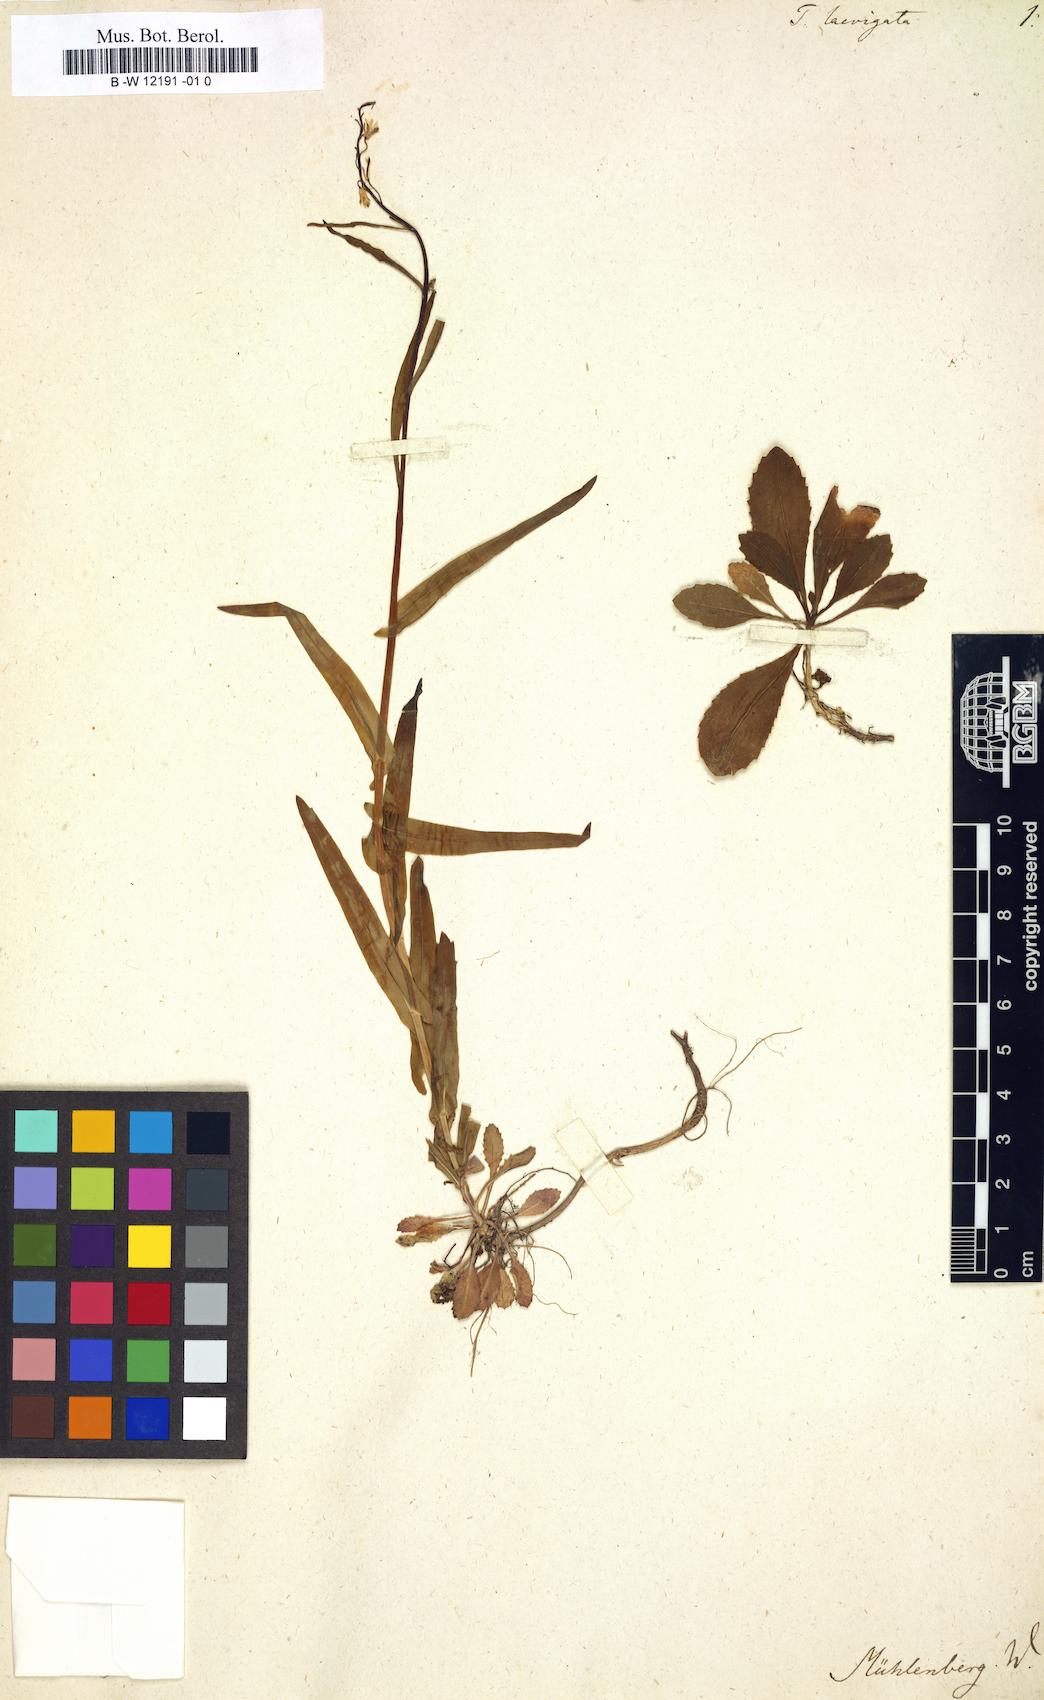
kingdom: Plantae
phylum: Tracheophyta
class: Magnoliopsida
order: Brassicales
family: Brassicaceae
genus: Borodinia
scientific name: Borodinia laevigata
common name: Smooth rockcress
